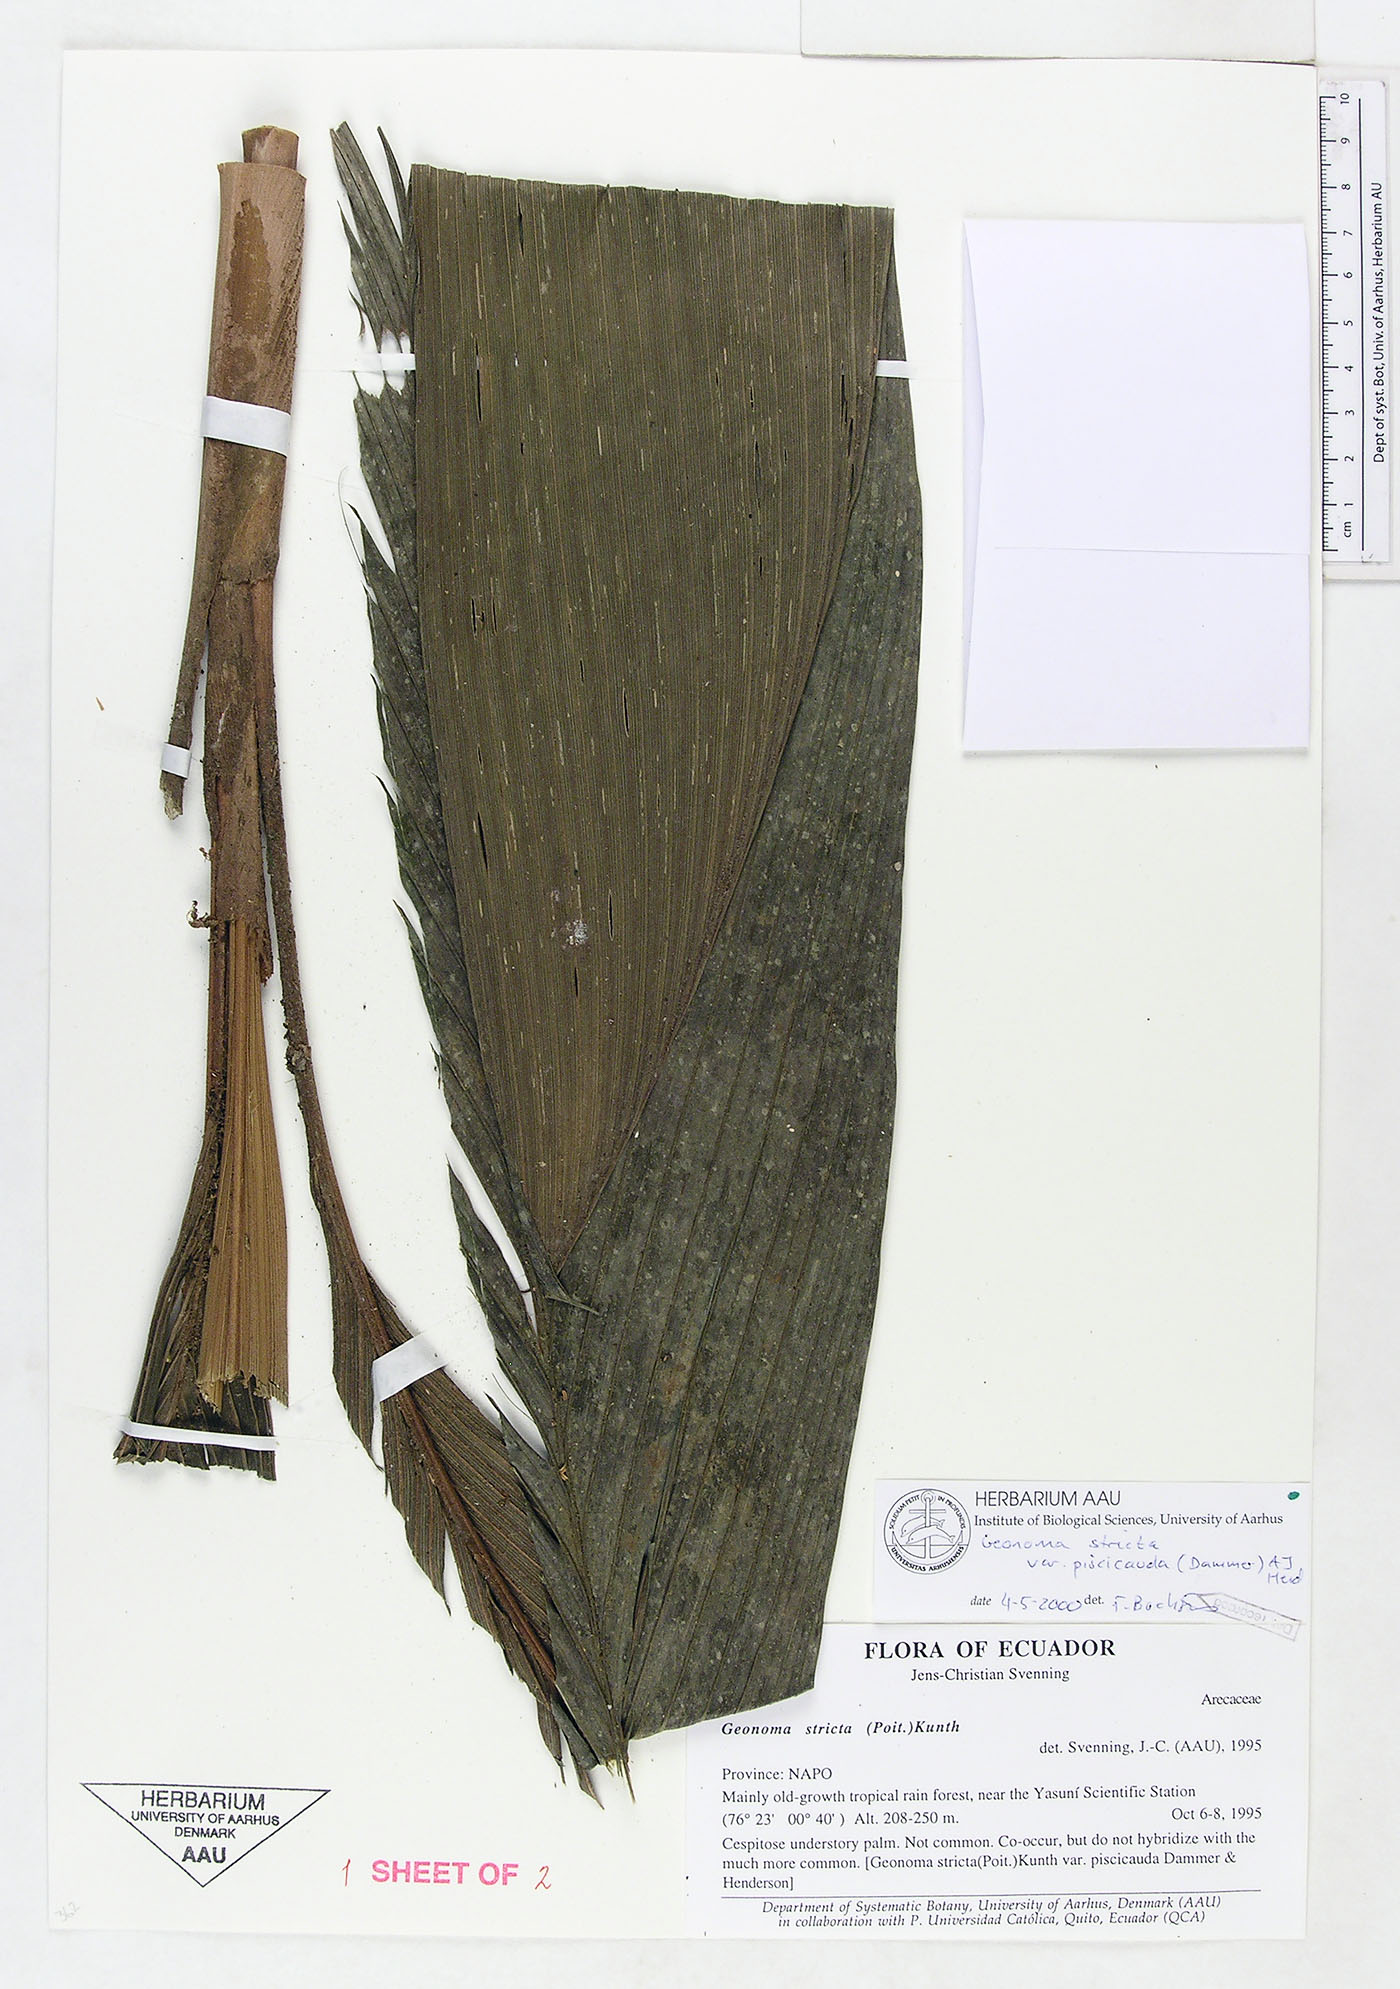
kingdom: Plantae
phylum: Tracheophyta
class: Liliopsida
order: Arecales
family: Arecaceae
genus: Geonoma
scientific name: Geonoma stricta
